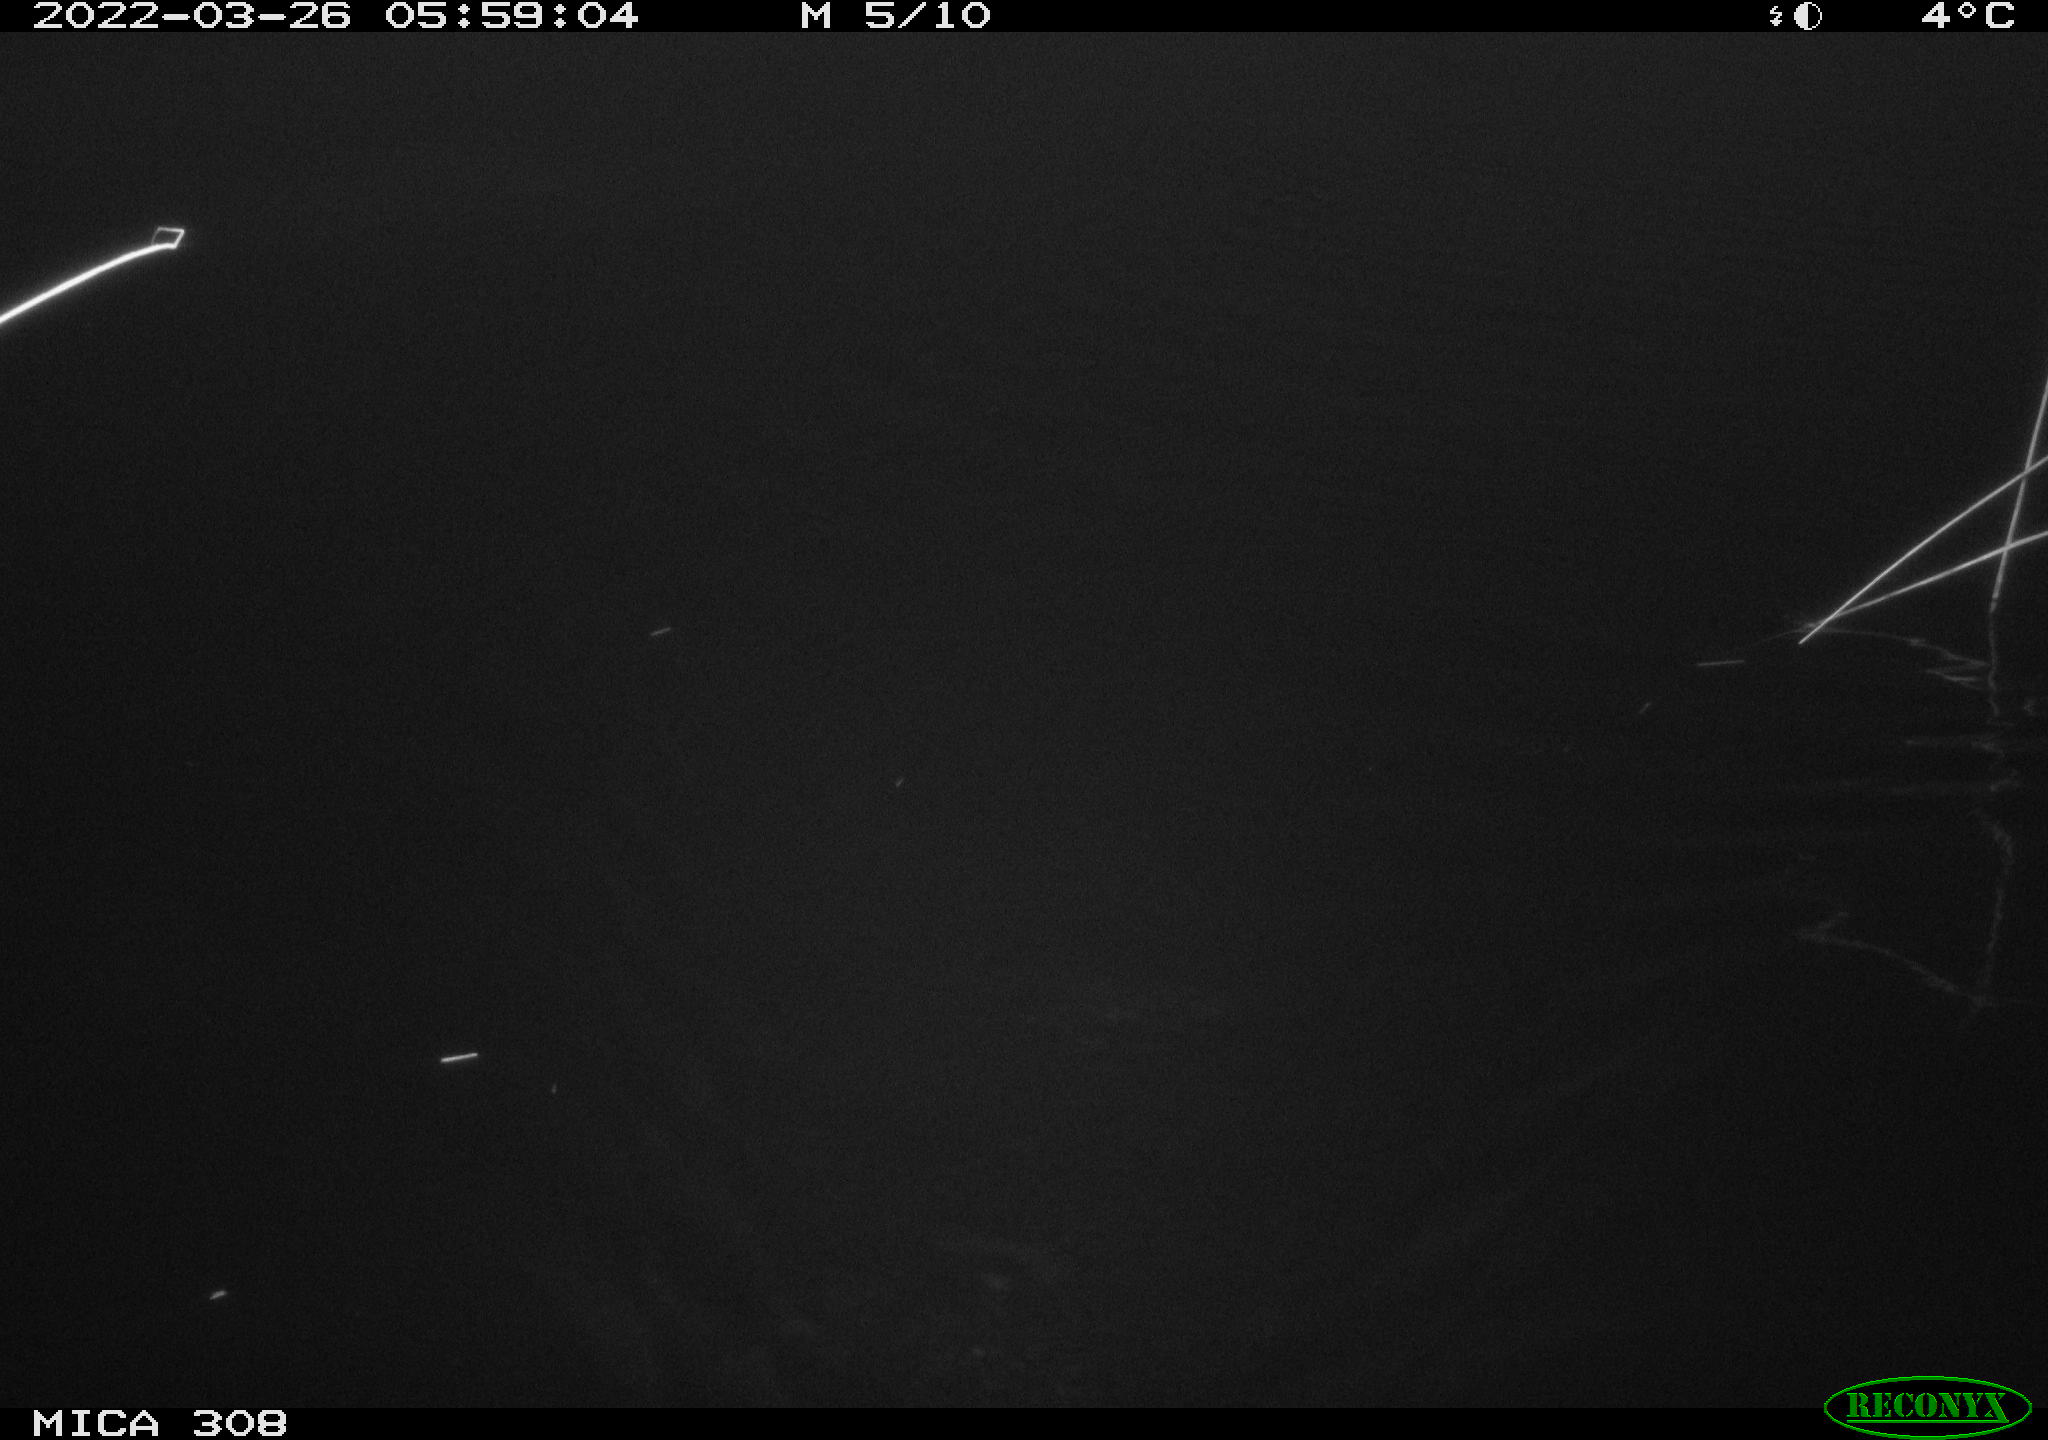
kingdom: Animalia
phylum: Chordata
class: Aves
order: Anseriformes
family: Anatidae
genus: Anas
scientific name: Anas platyrhynchos
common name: Mallard
